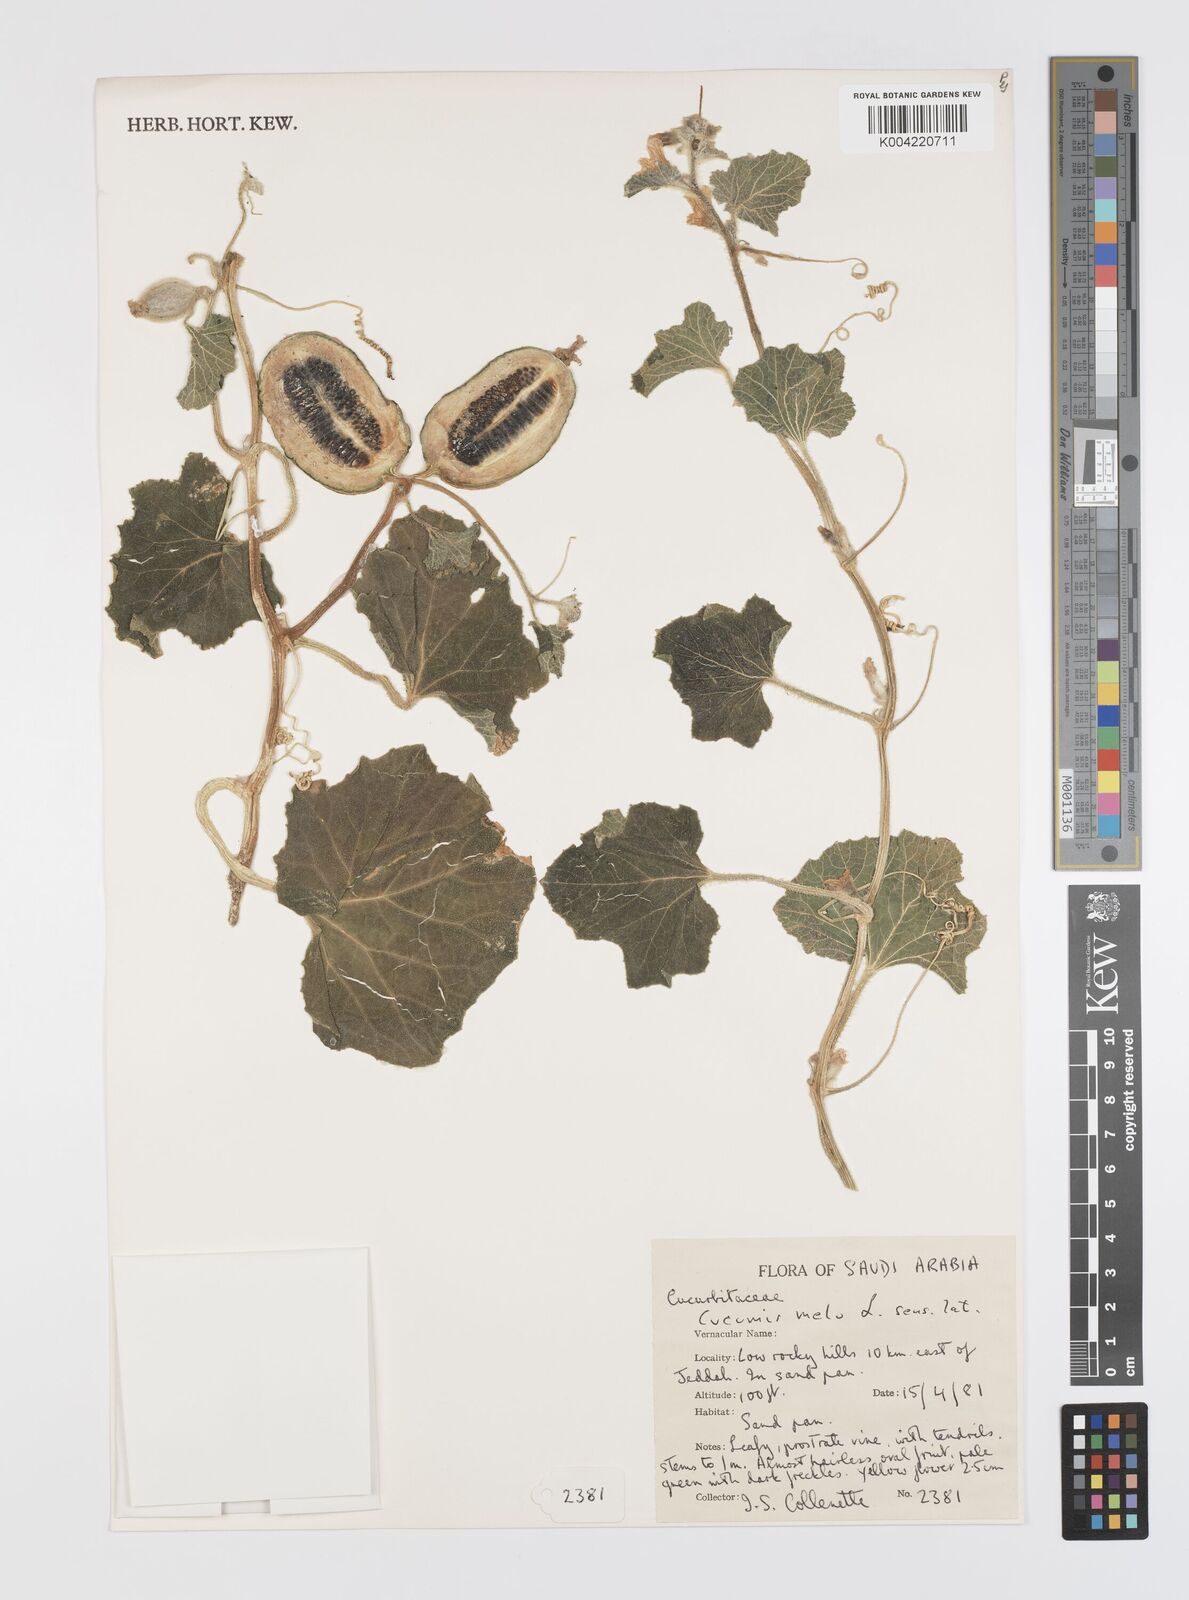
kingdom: Plantae
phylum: Tracheophyta
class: Magnoliopsida
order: Cucurbitales
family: Cucurbitaceae
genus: Cucumis
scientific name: Cucumis melo
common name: Melon
